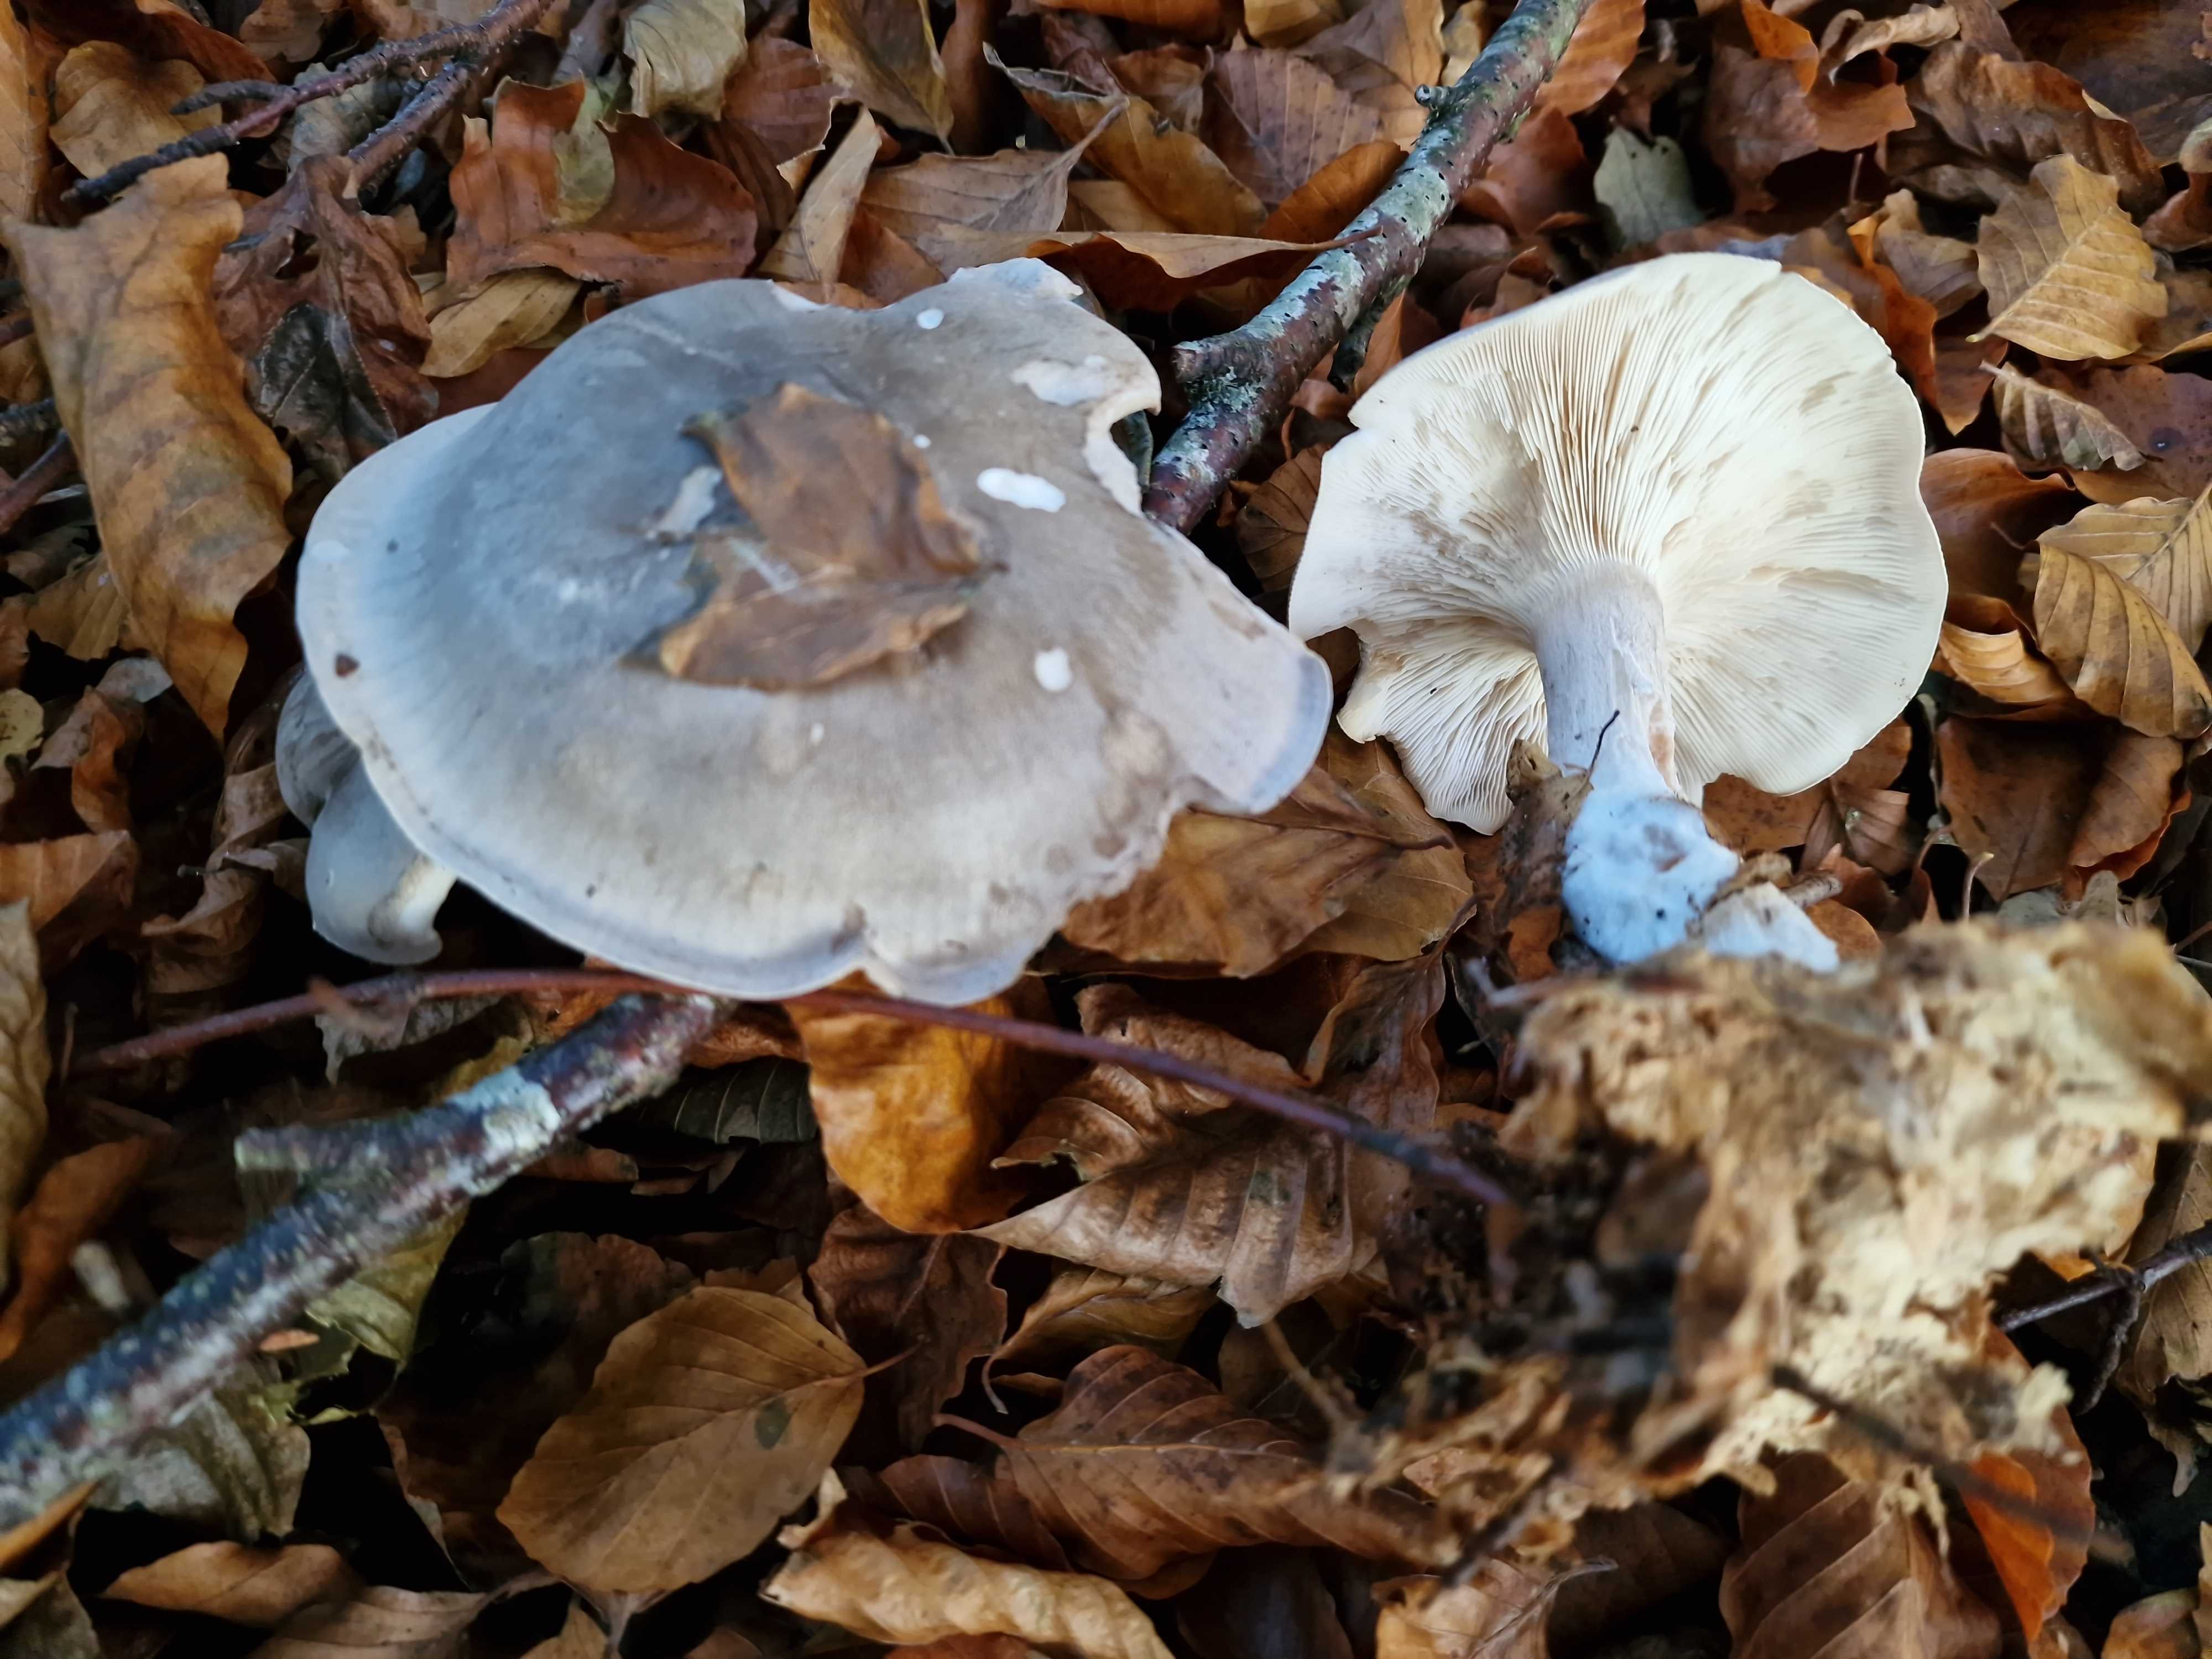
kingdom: Fungi
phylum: Basidiomycota
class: Agaricomycetes
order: Agaricales
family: Tricholomataceae
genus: Clitocybe
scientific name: Clitocybe nebularis
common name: tåge-tragthat
